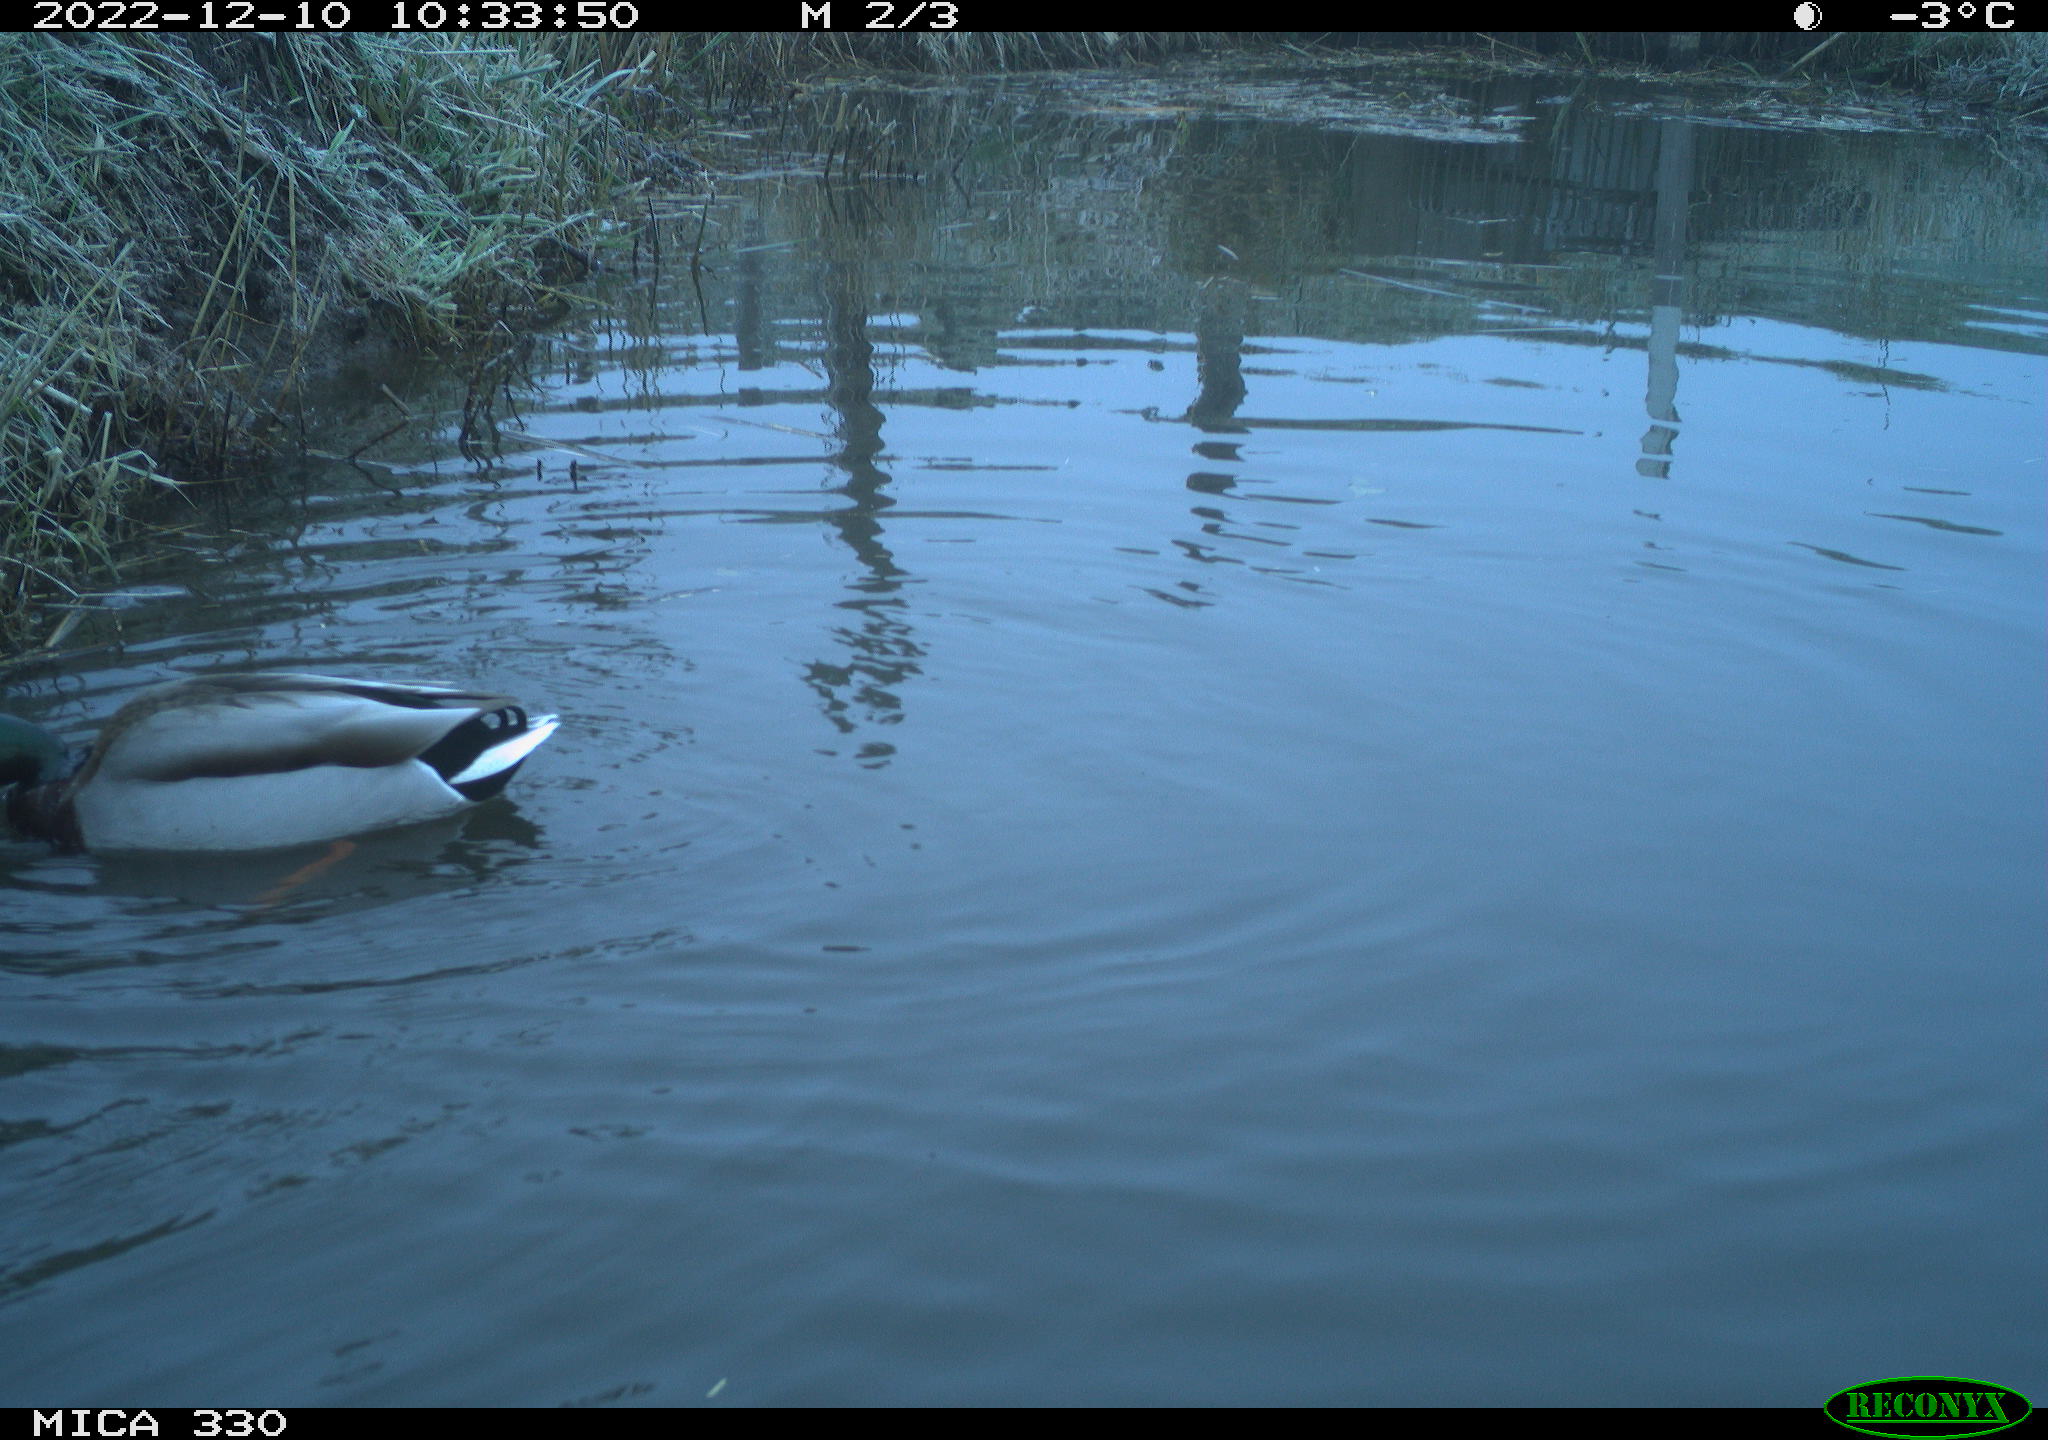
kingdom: Animalia
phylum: Chordata
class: Aves
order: Anseriformes
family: Anatidae
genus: Anas
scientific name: Anas
